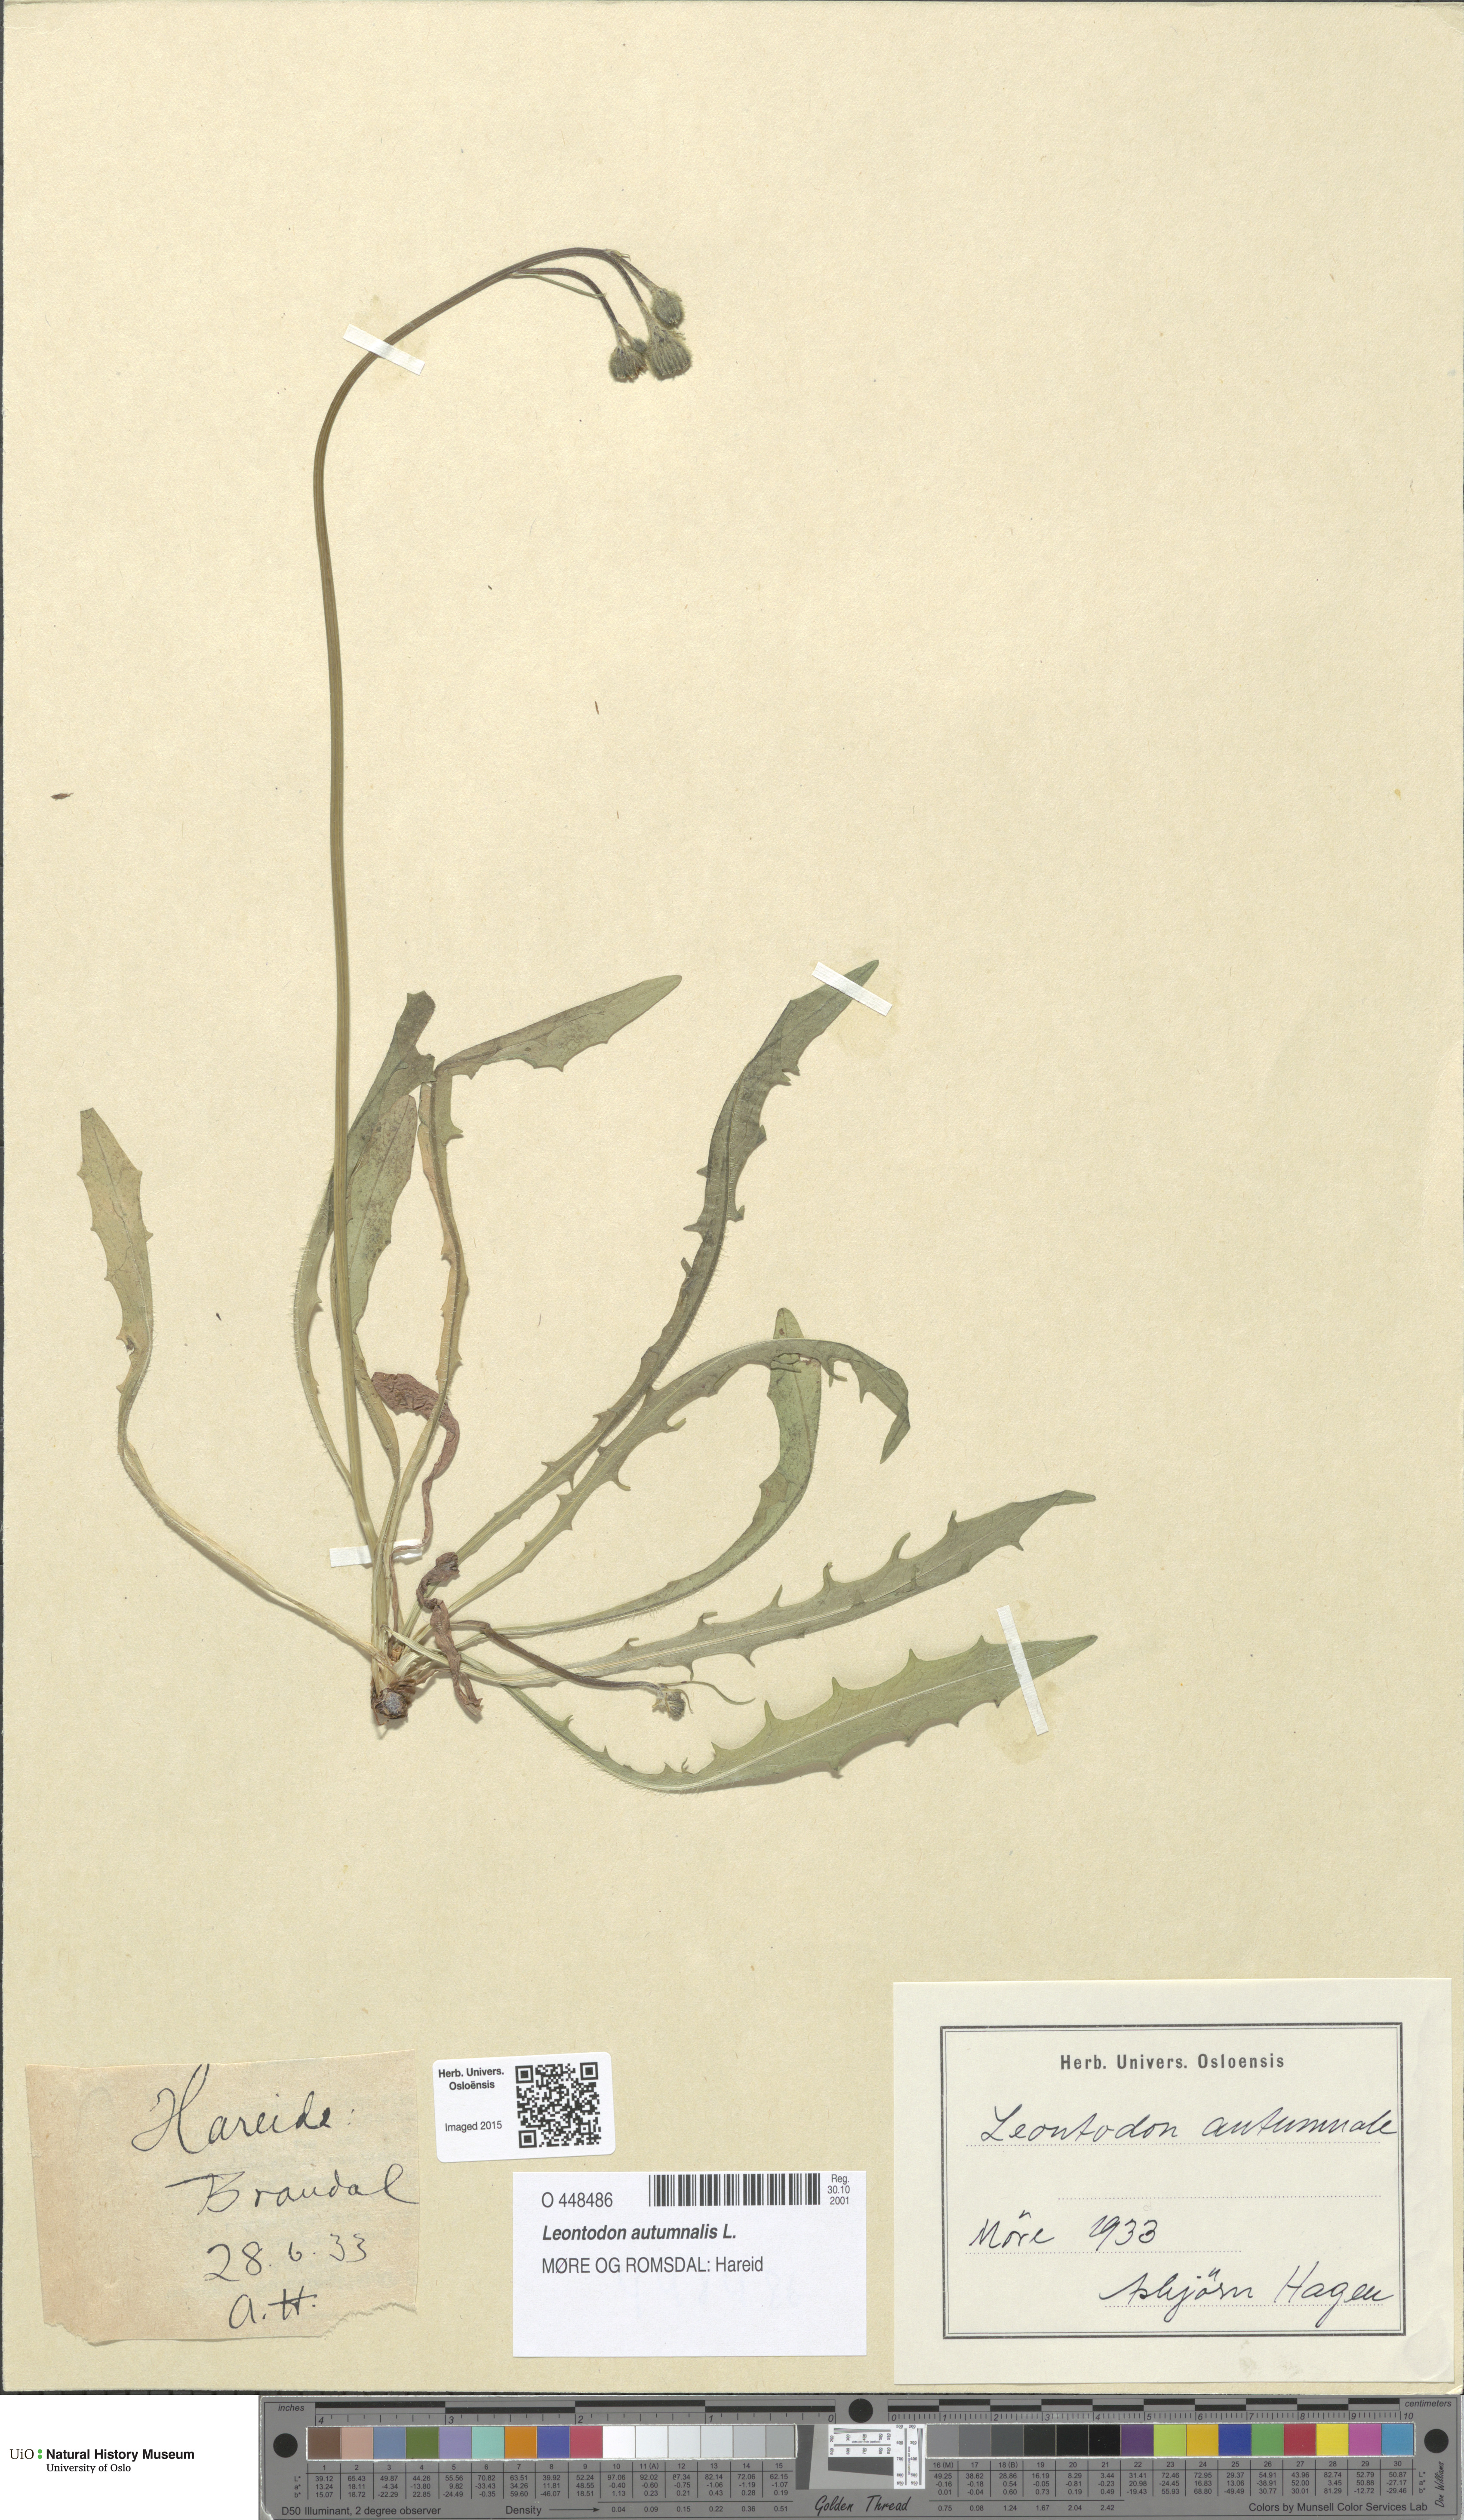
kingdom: Plantae
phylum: Tracheophyta
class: Magnoliopsida
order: Asterales
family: Asteraceae
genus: Scorzoneroides
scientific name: Scorzoneroides autumnalis
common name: Autumn hawkbit
